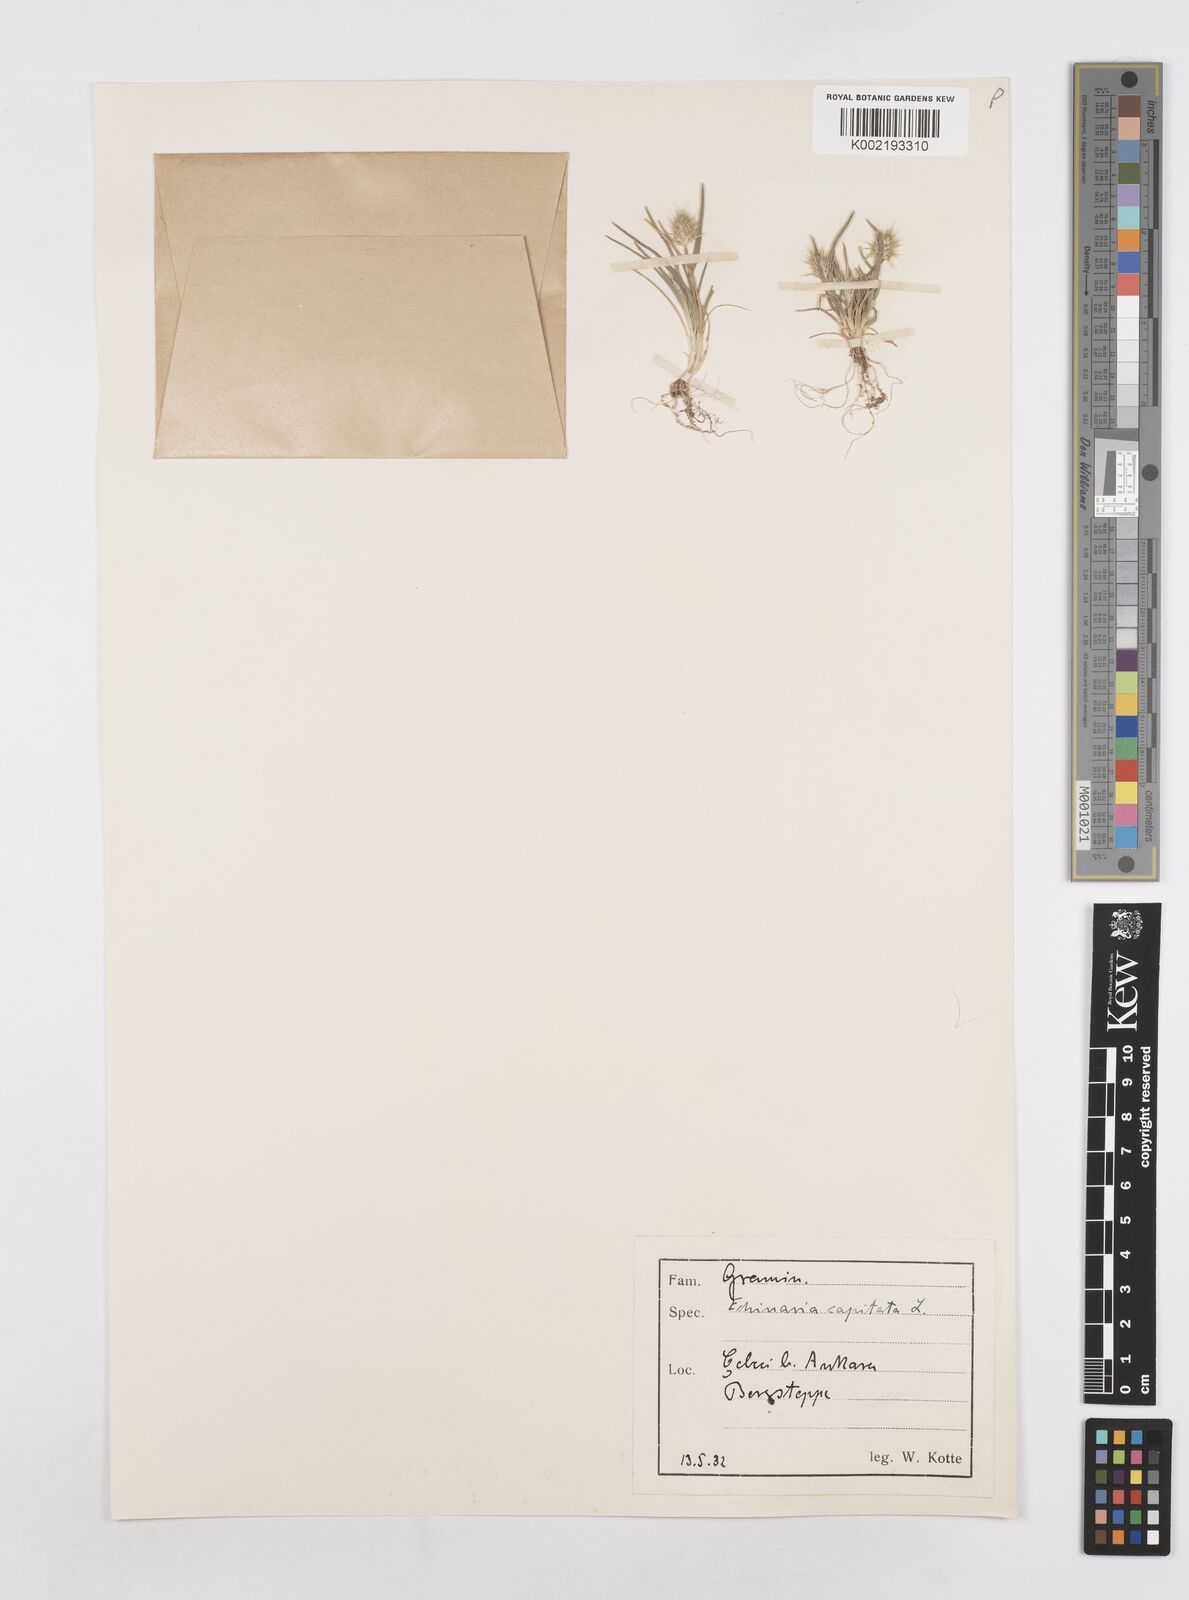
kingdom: Plantae
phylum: Tracheophyta
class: Liliopsida
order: Poales
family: Poaceae
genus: Echinaria
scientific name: Echinaria capitata
